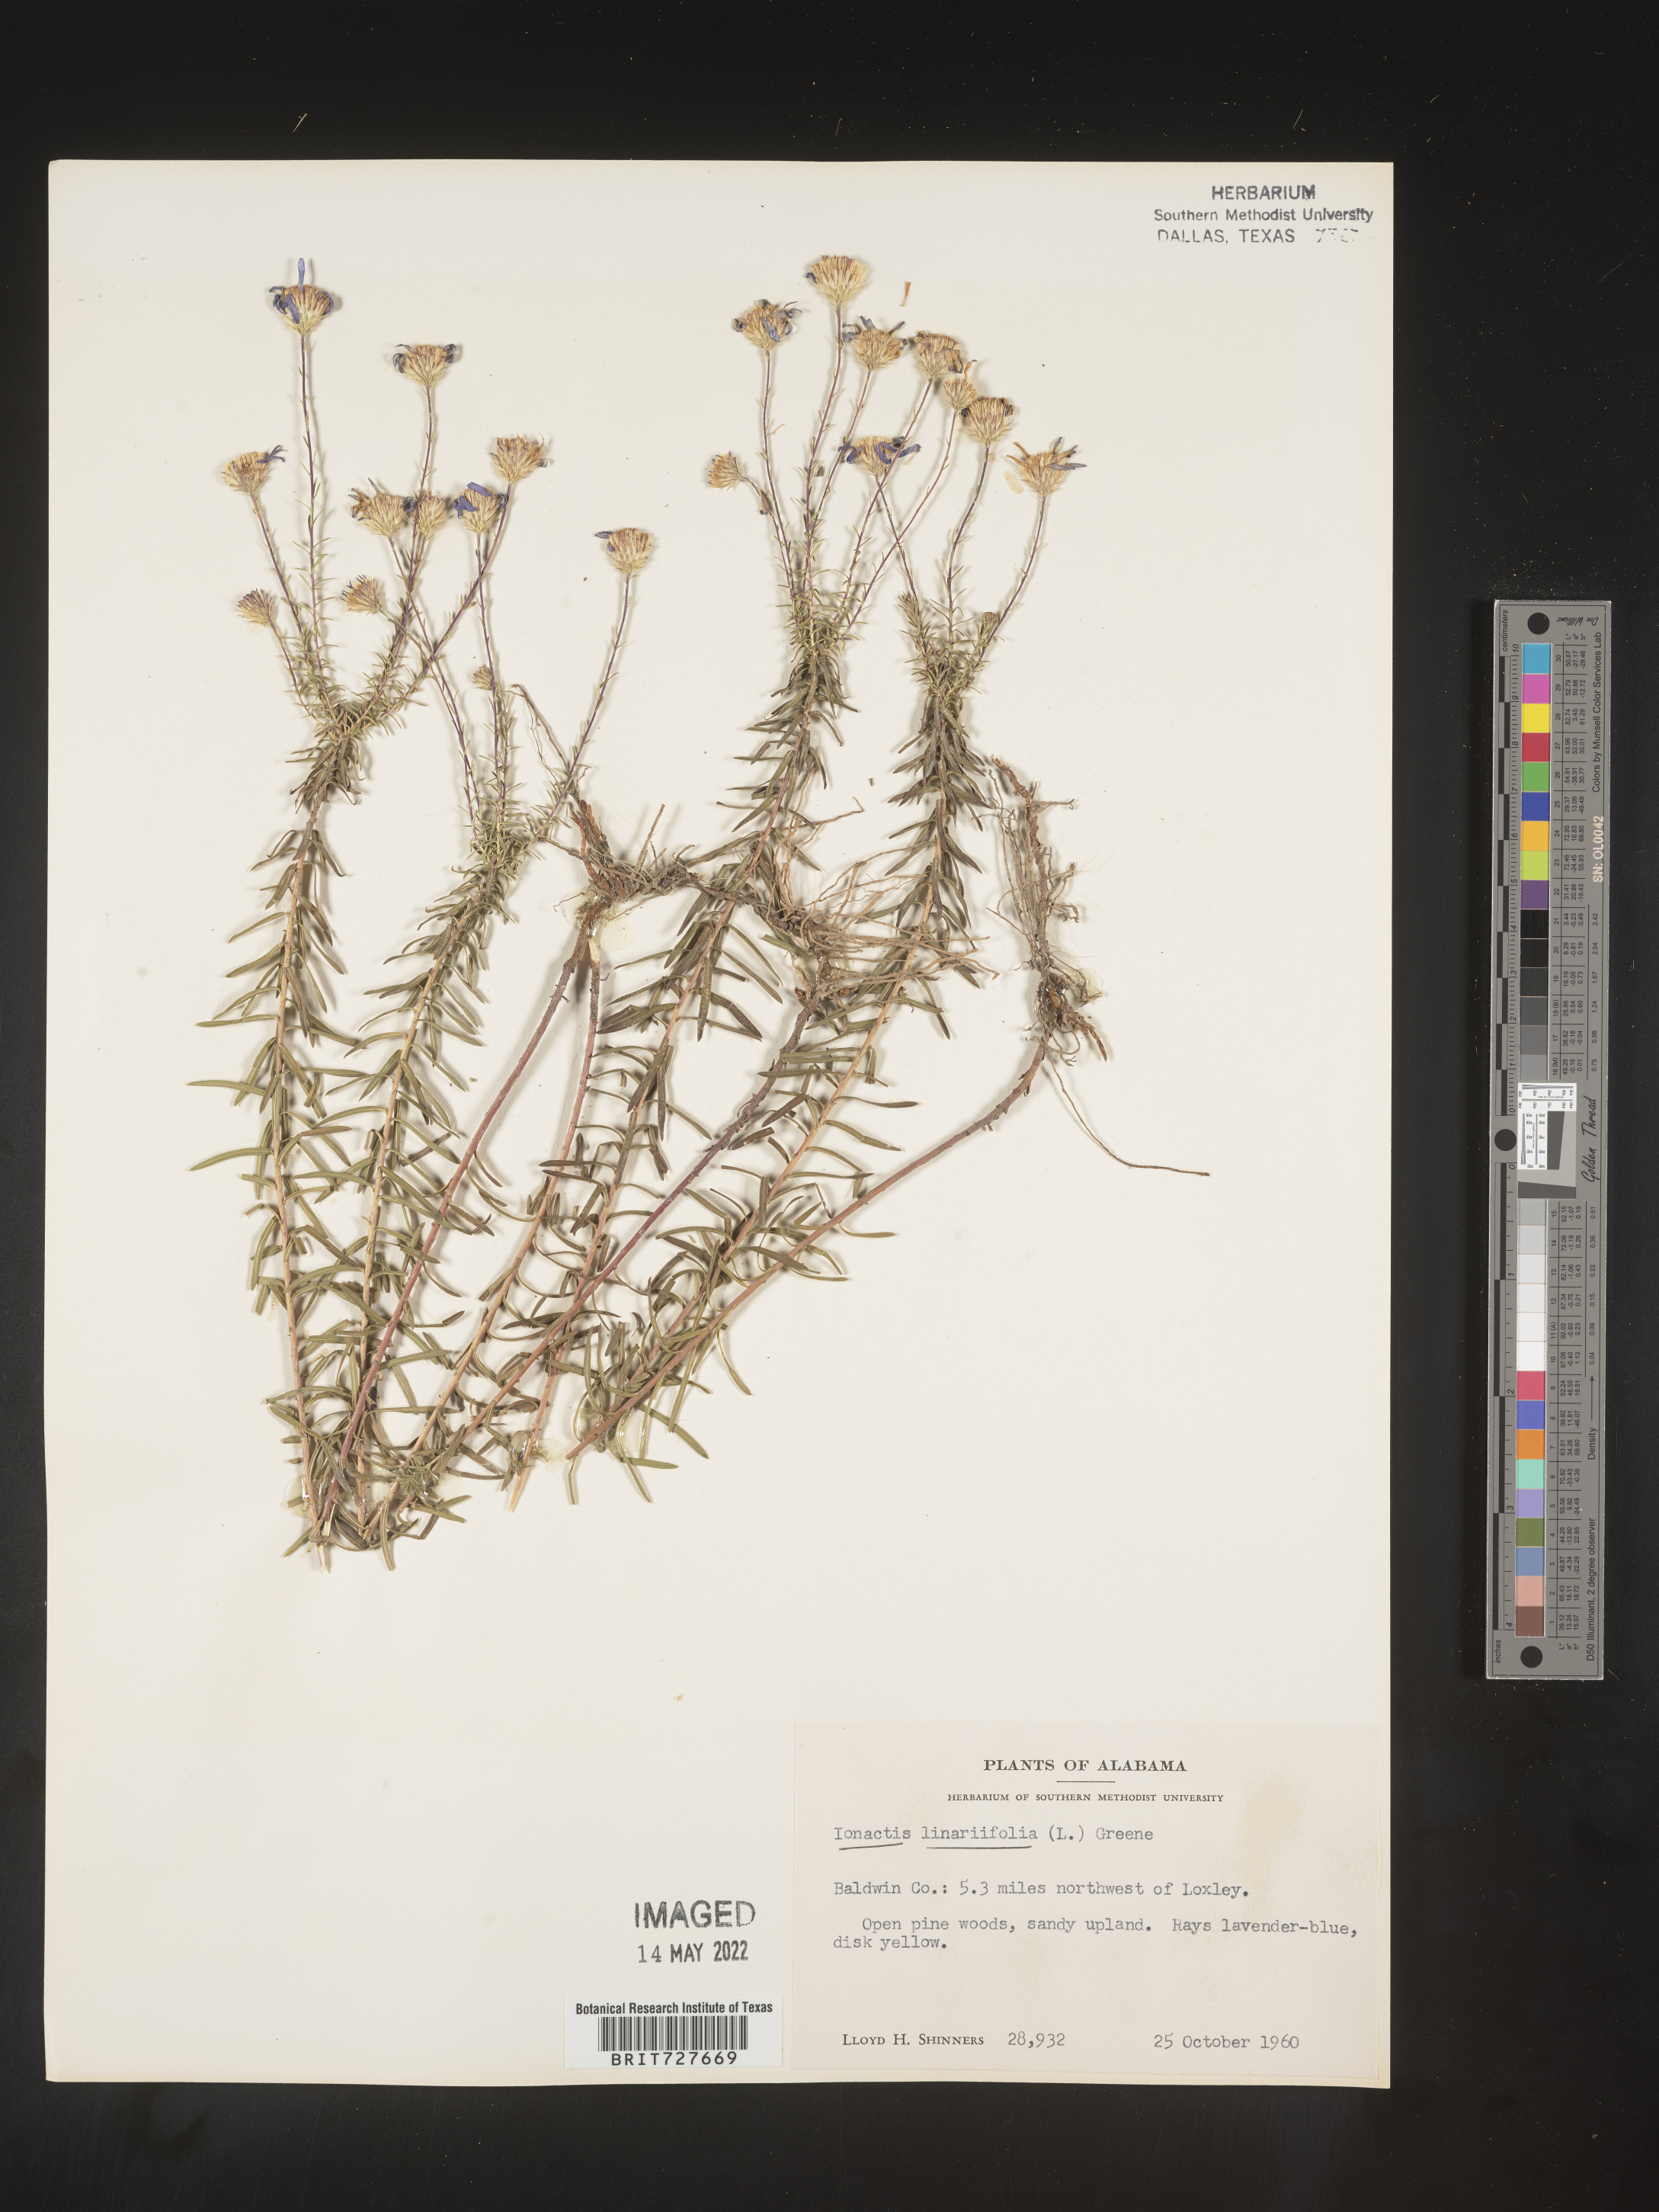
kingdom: Plantae
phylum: Tracheophyta
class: Magnoliopsida
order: Asterales
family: Asteraceae
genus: Ionactis
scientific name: Ionactis linariifolia
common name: Flax-leaf aster
